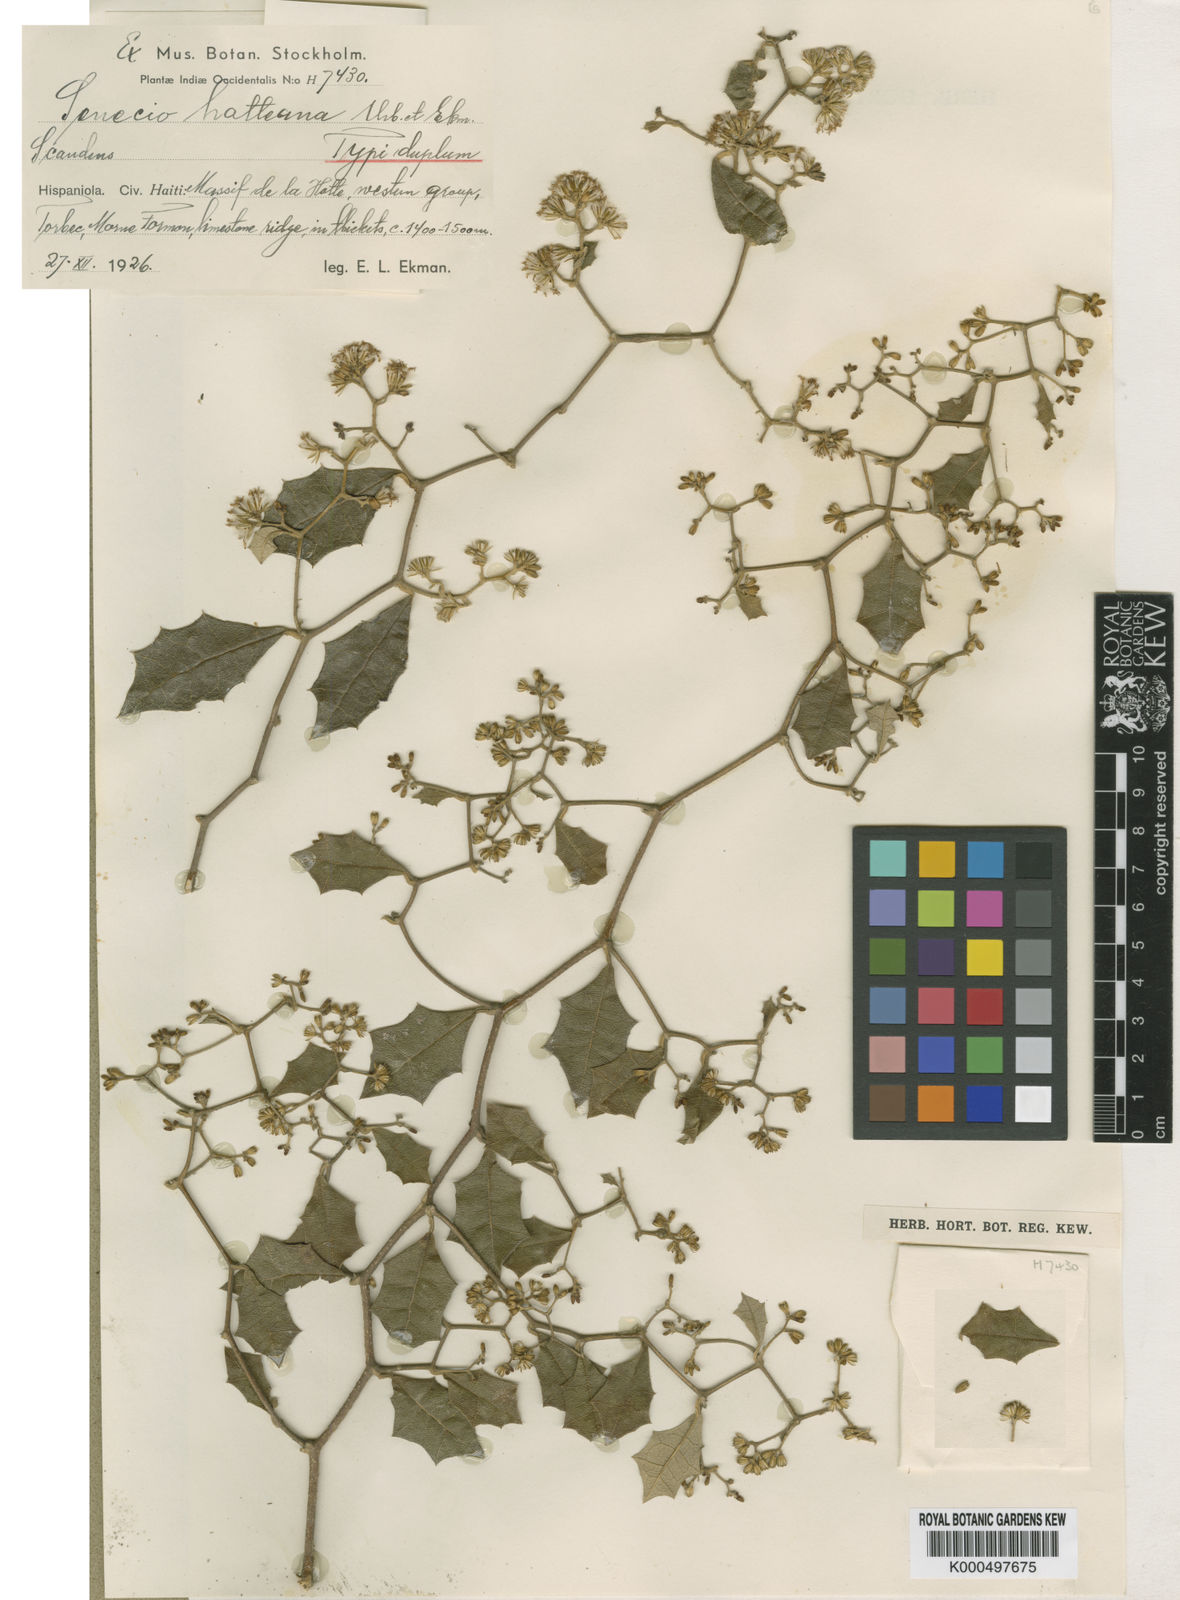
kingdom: Plantae
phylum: Tracheophyta
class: Magnoliopsida
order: Asterales
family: Asteraceae
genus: Nesampelos
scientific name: Nesampelos hotteana
